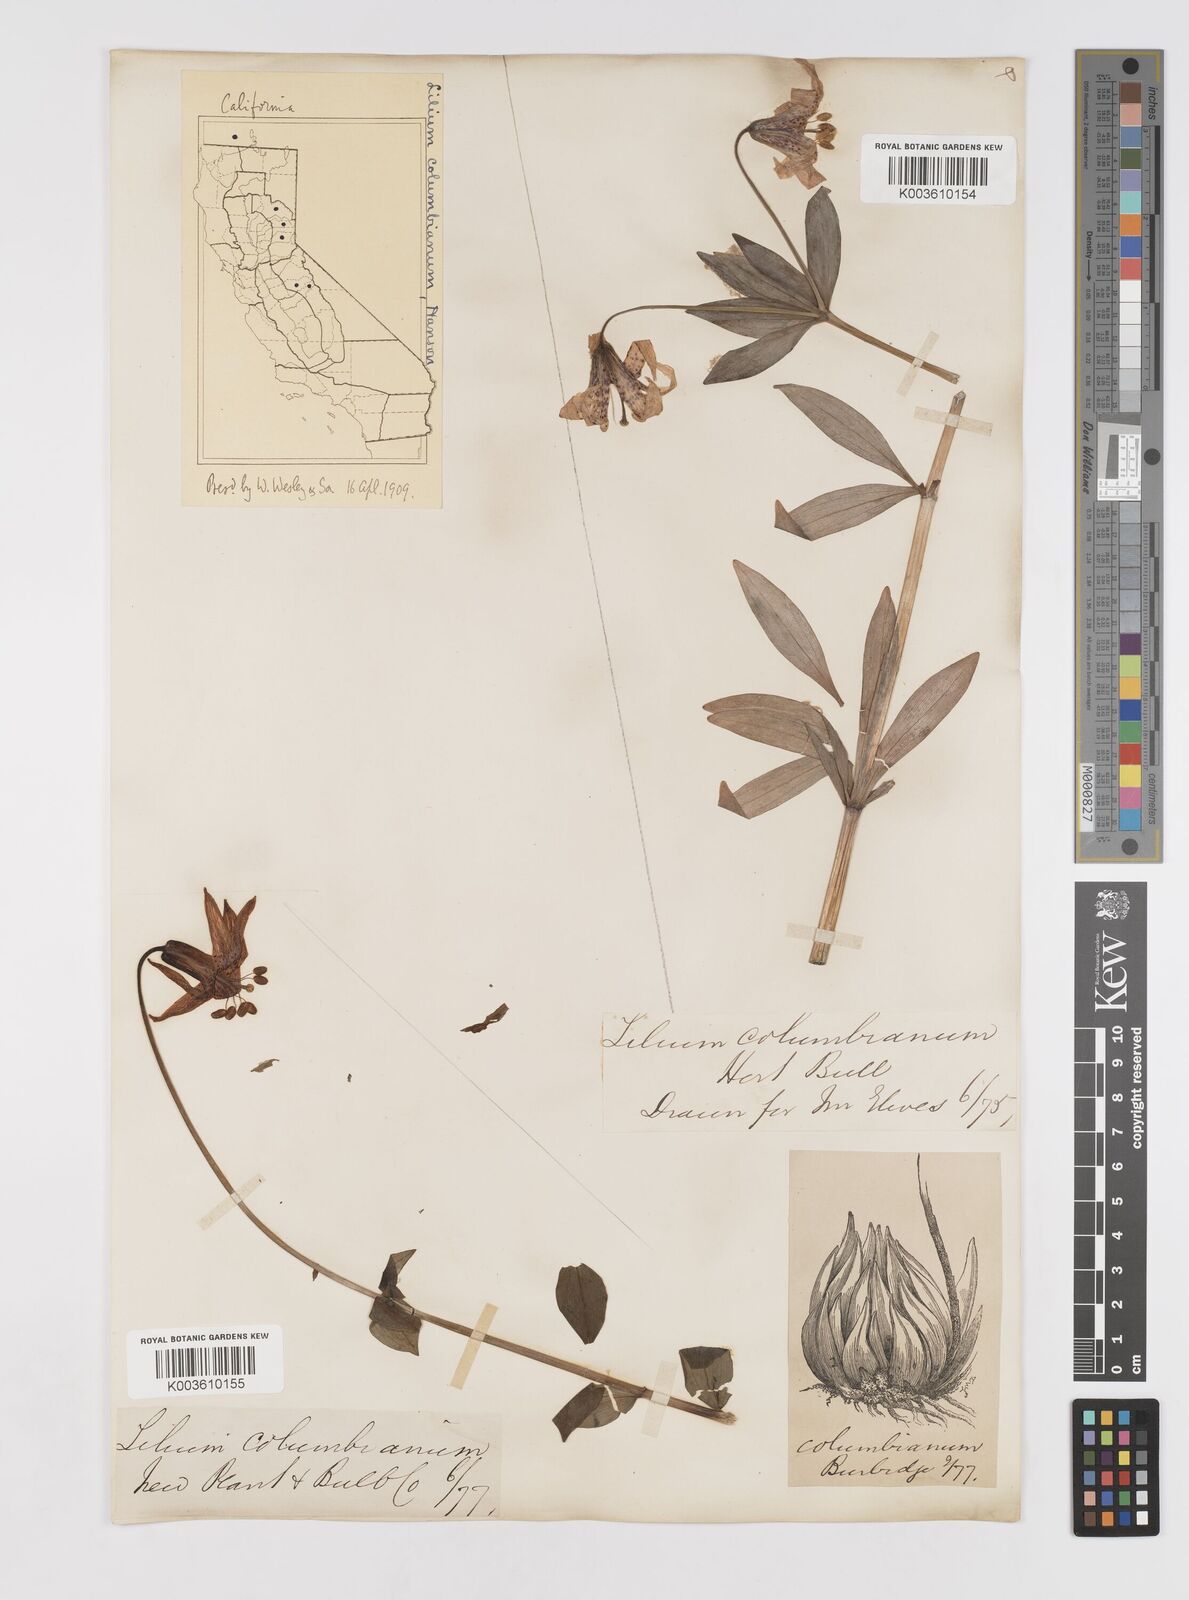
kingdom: Plantae
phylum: Tracheophyta
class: Liliopsida
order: Liliales
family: Liliaceae
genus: Lilium
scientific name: Lilium columbianum
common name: Columbia lily
